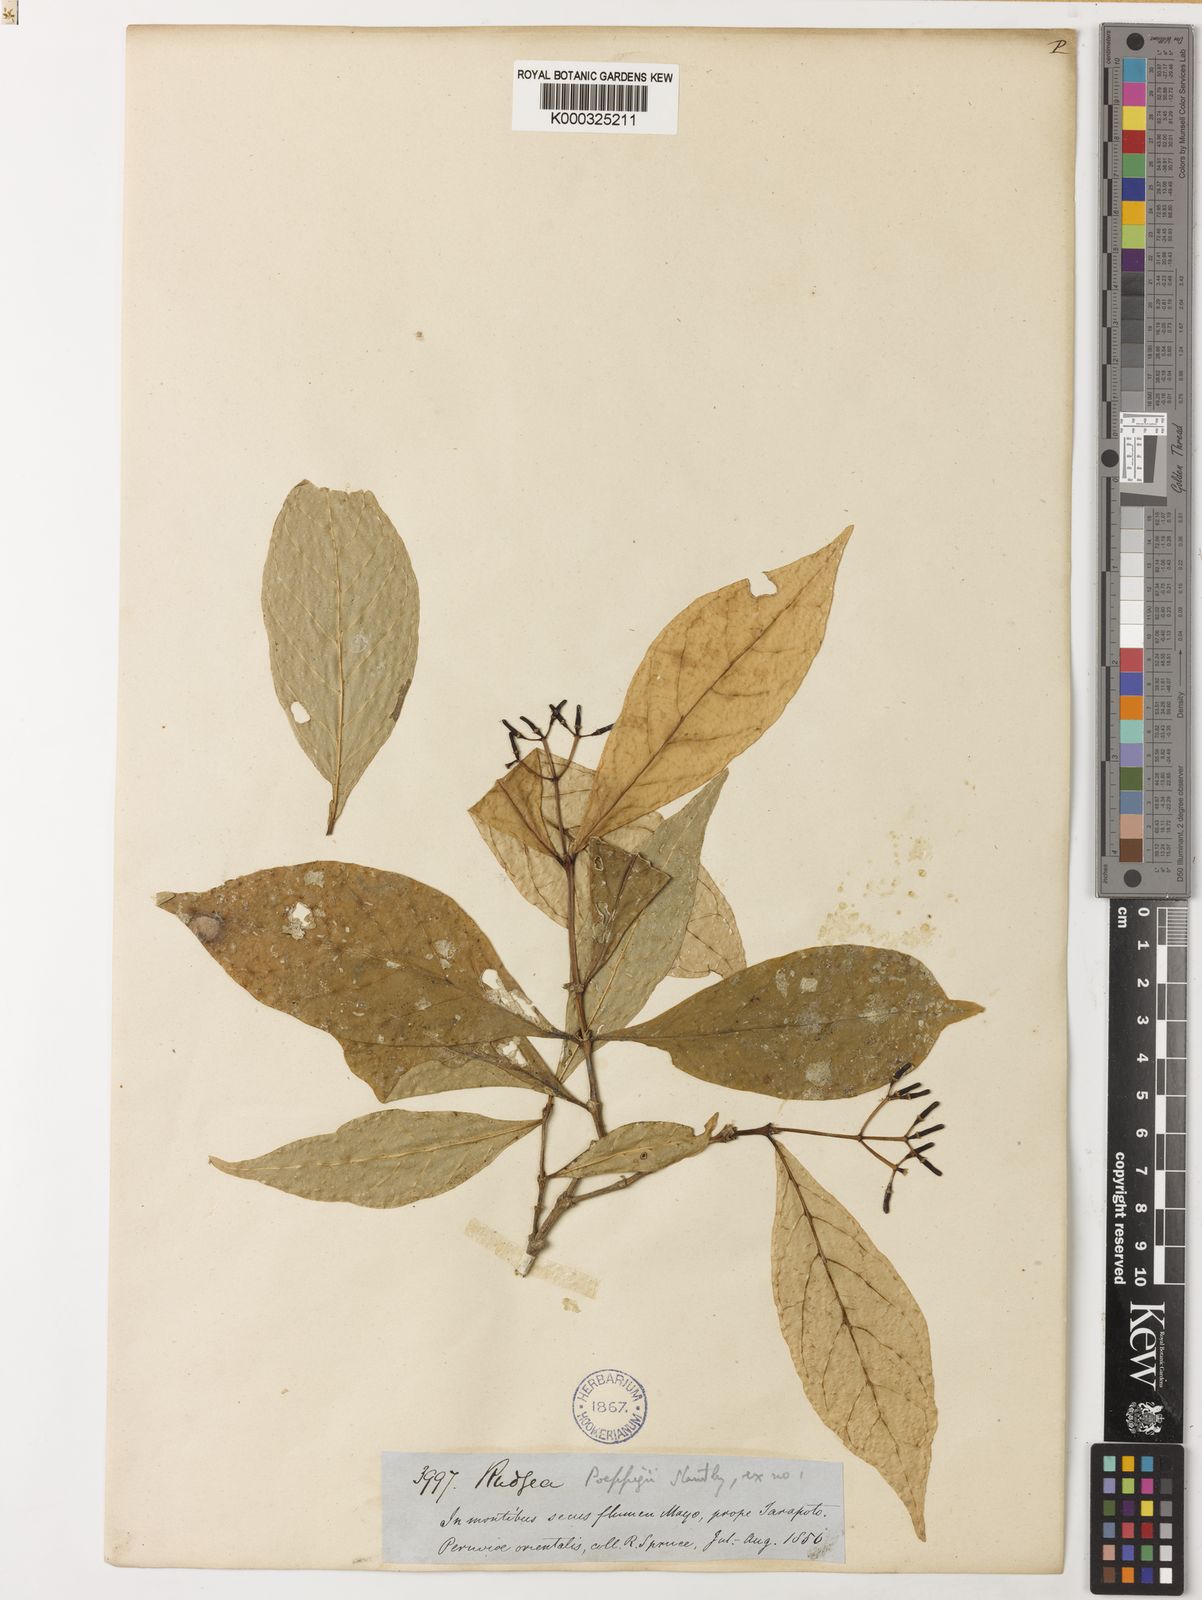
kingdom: Plantae
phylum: Tracheophyta
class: Magnoliopsida
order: Gentianales
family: Rubiaceae
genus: Rudgea
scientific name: Rudgea poeppigii
